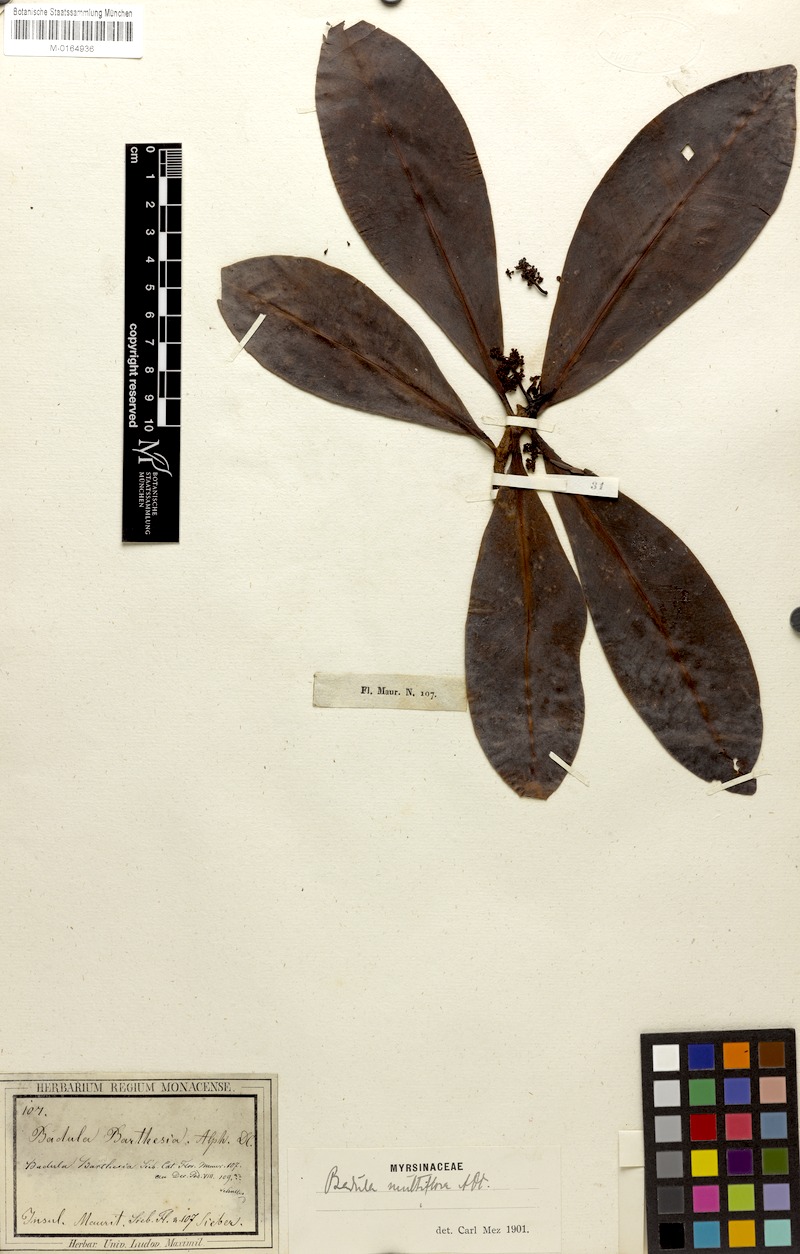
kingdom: Plantae
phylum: Tracheophyta
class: Magnoliopsida
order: Ericales
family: Primulaceae
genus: Badula
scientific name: Badula multiflora
